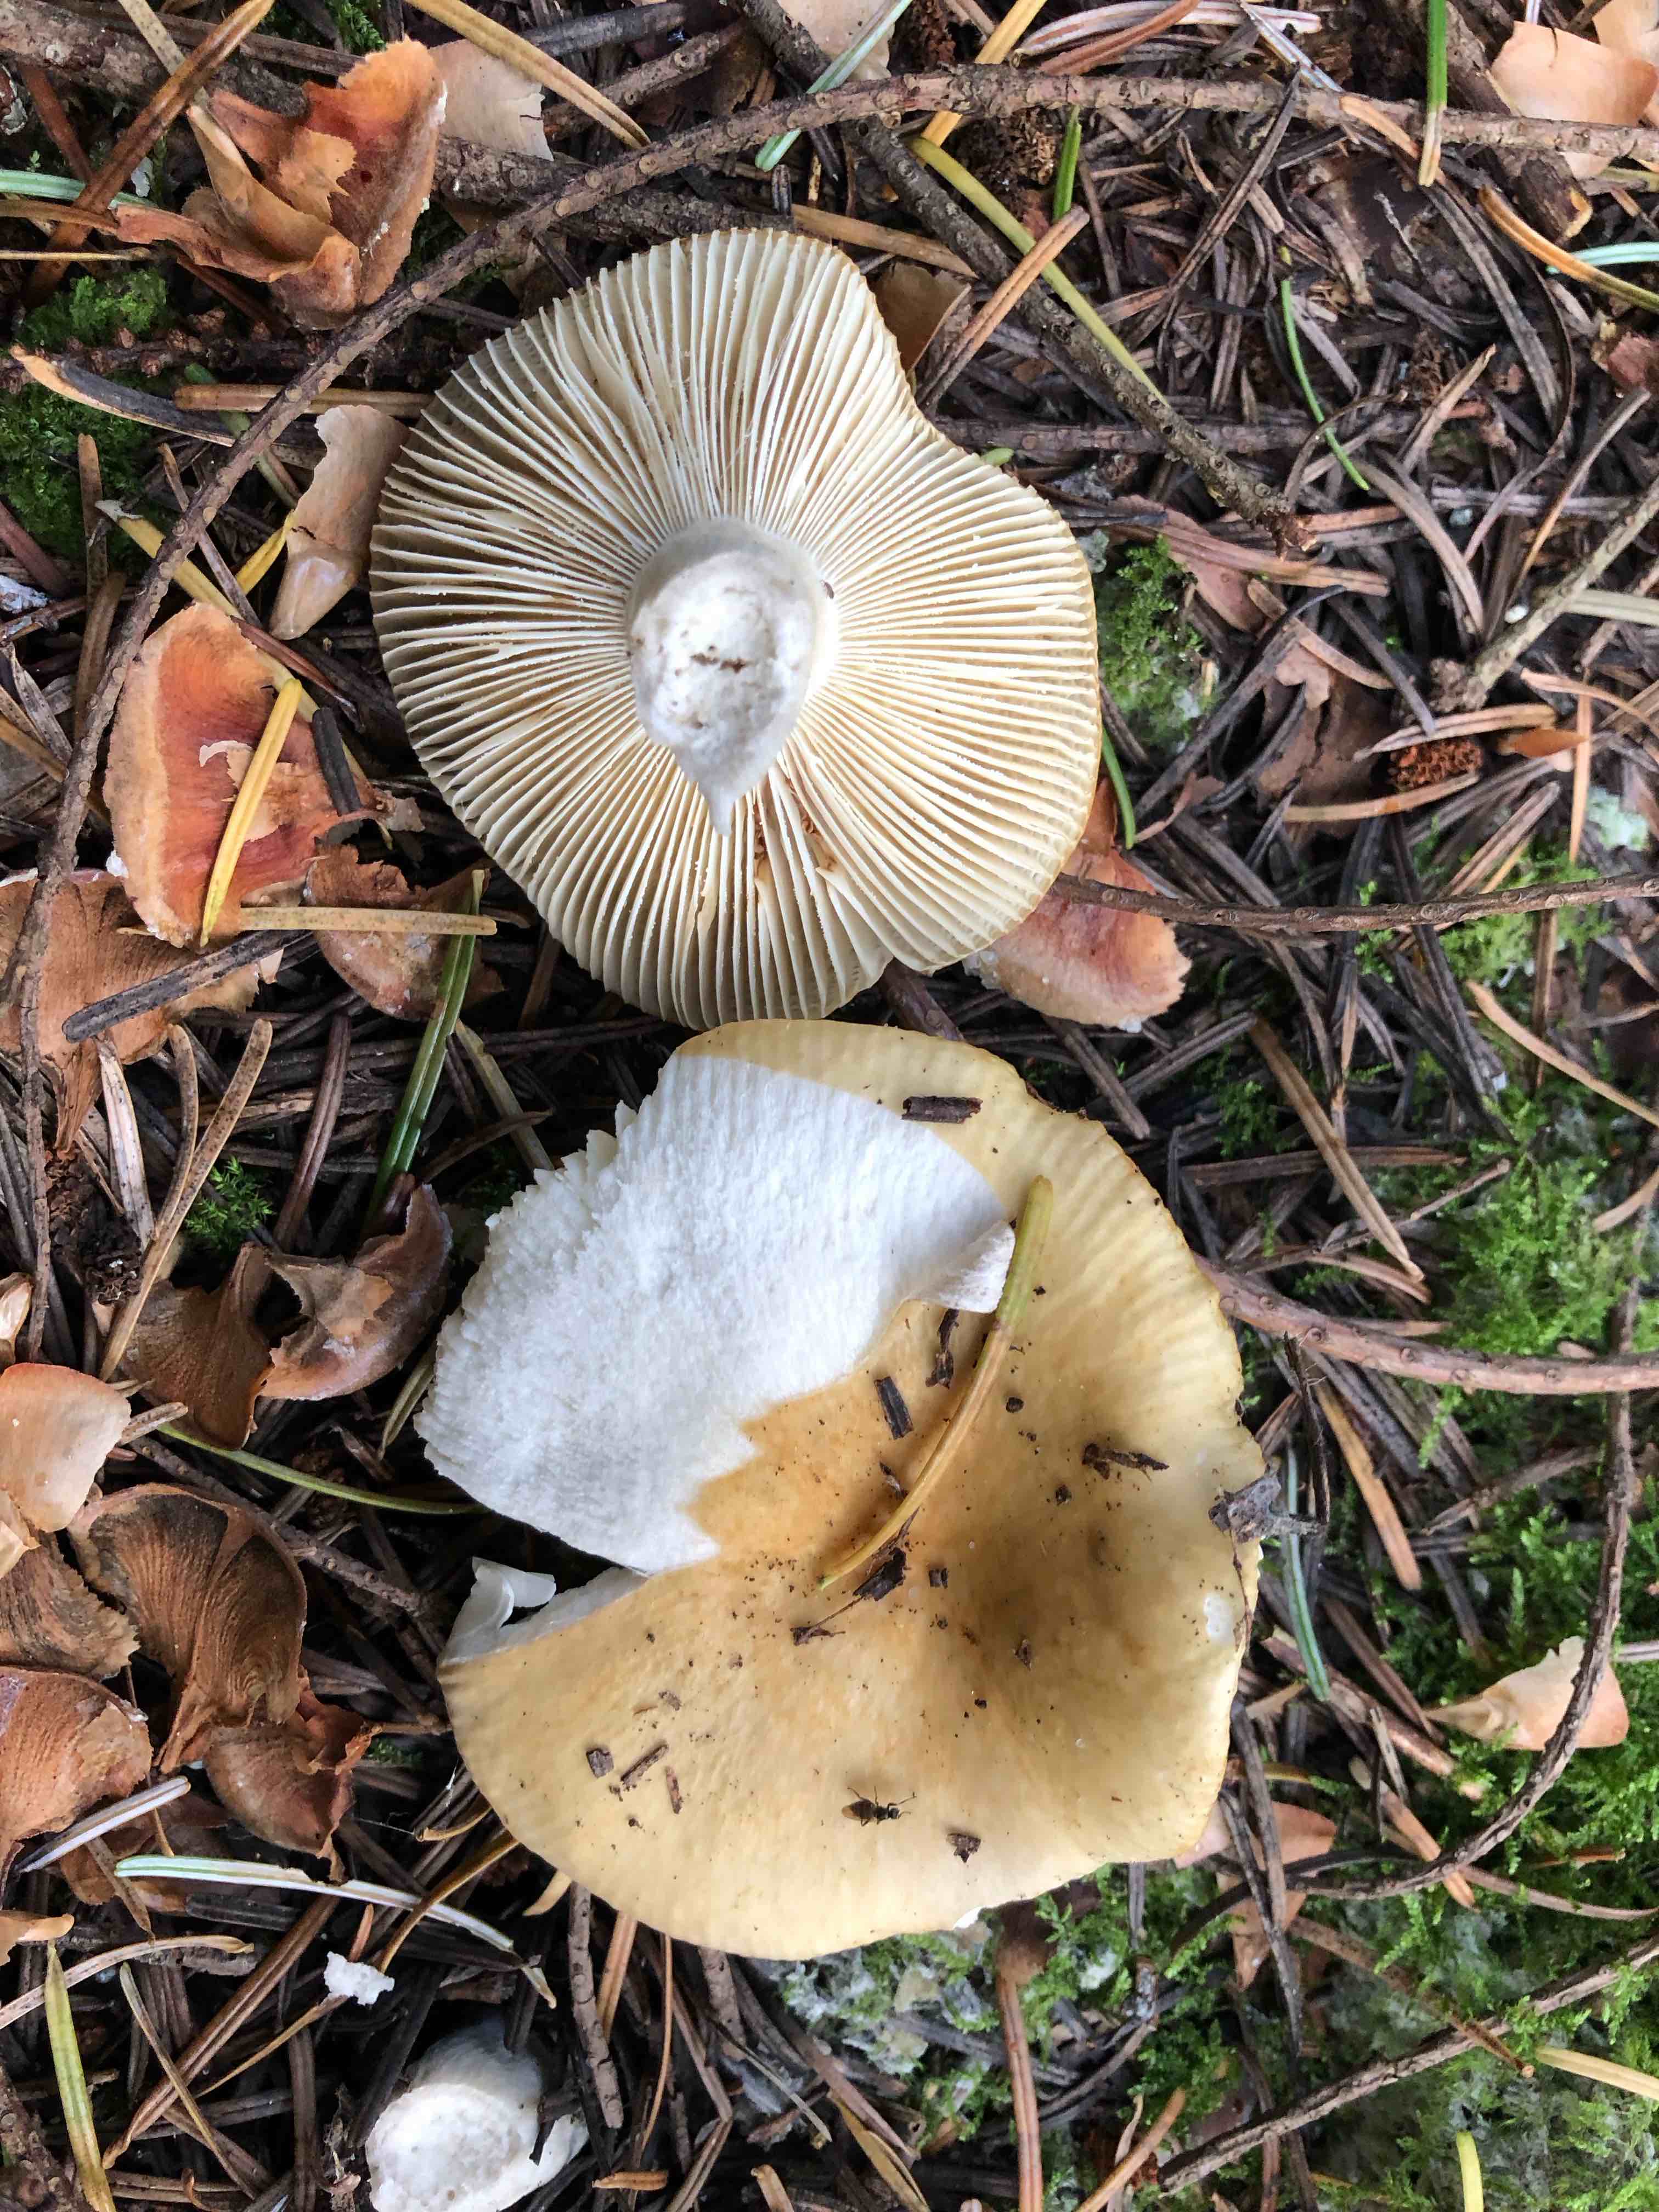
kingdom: Fungi
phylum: Basidiomycota
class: Agaricomycetes
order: Russulales
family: Russulaceae
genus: Russula
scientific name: Russula ochroleuca
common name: okkergul skørhat
